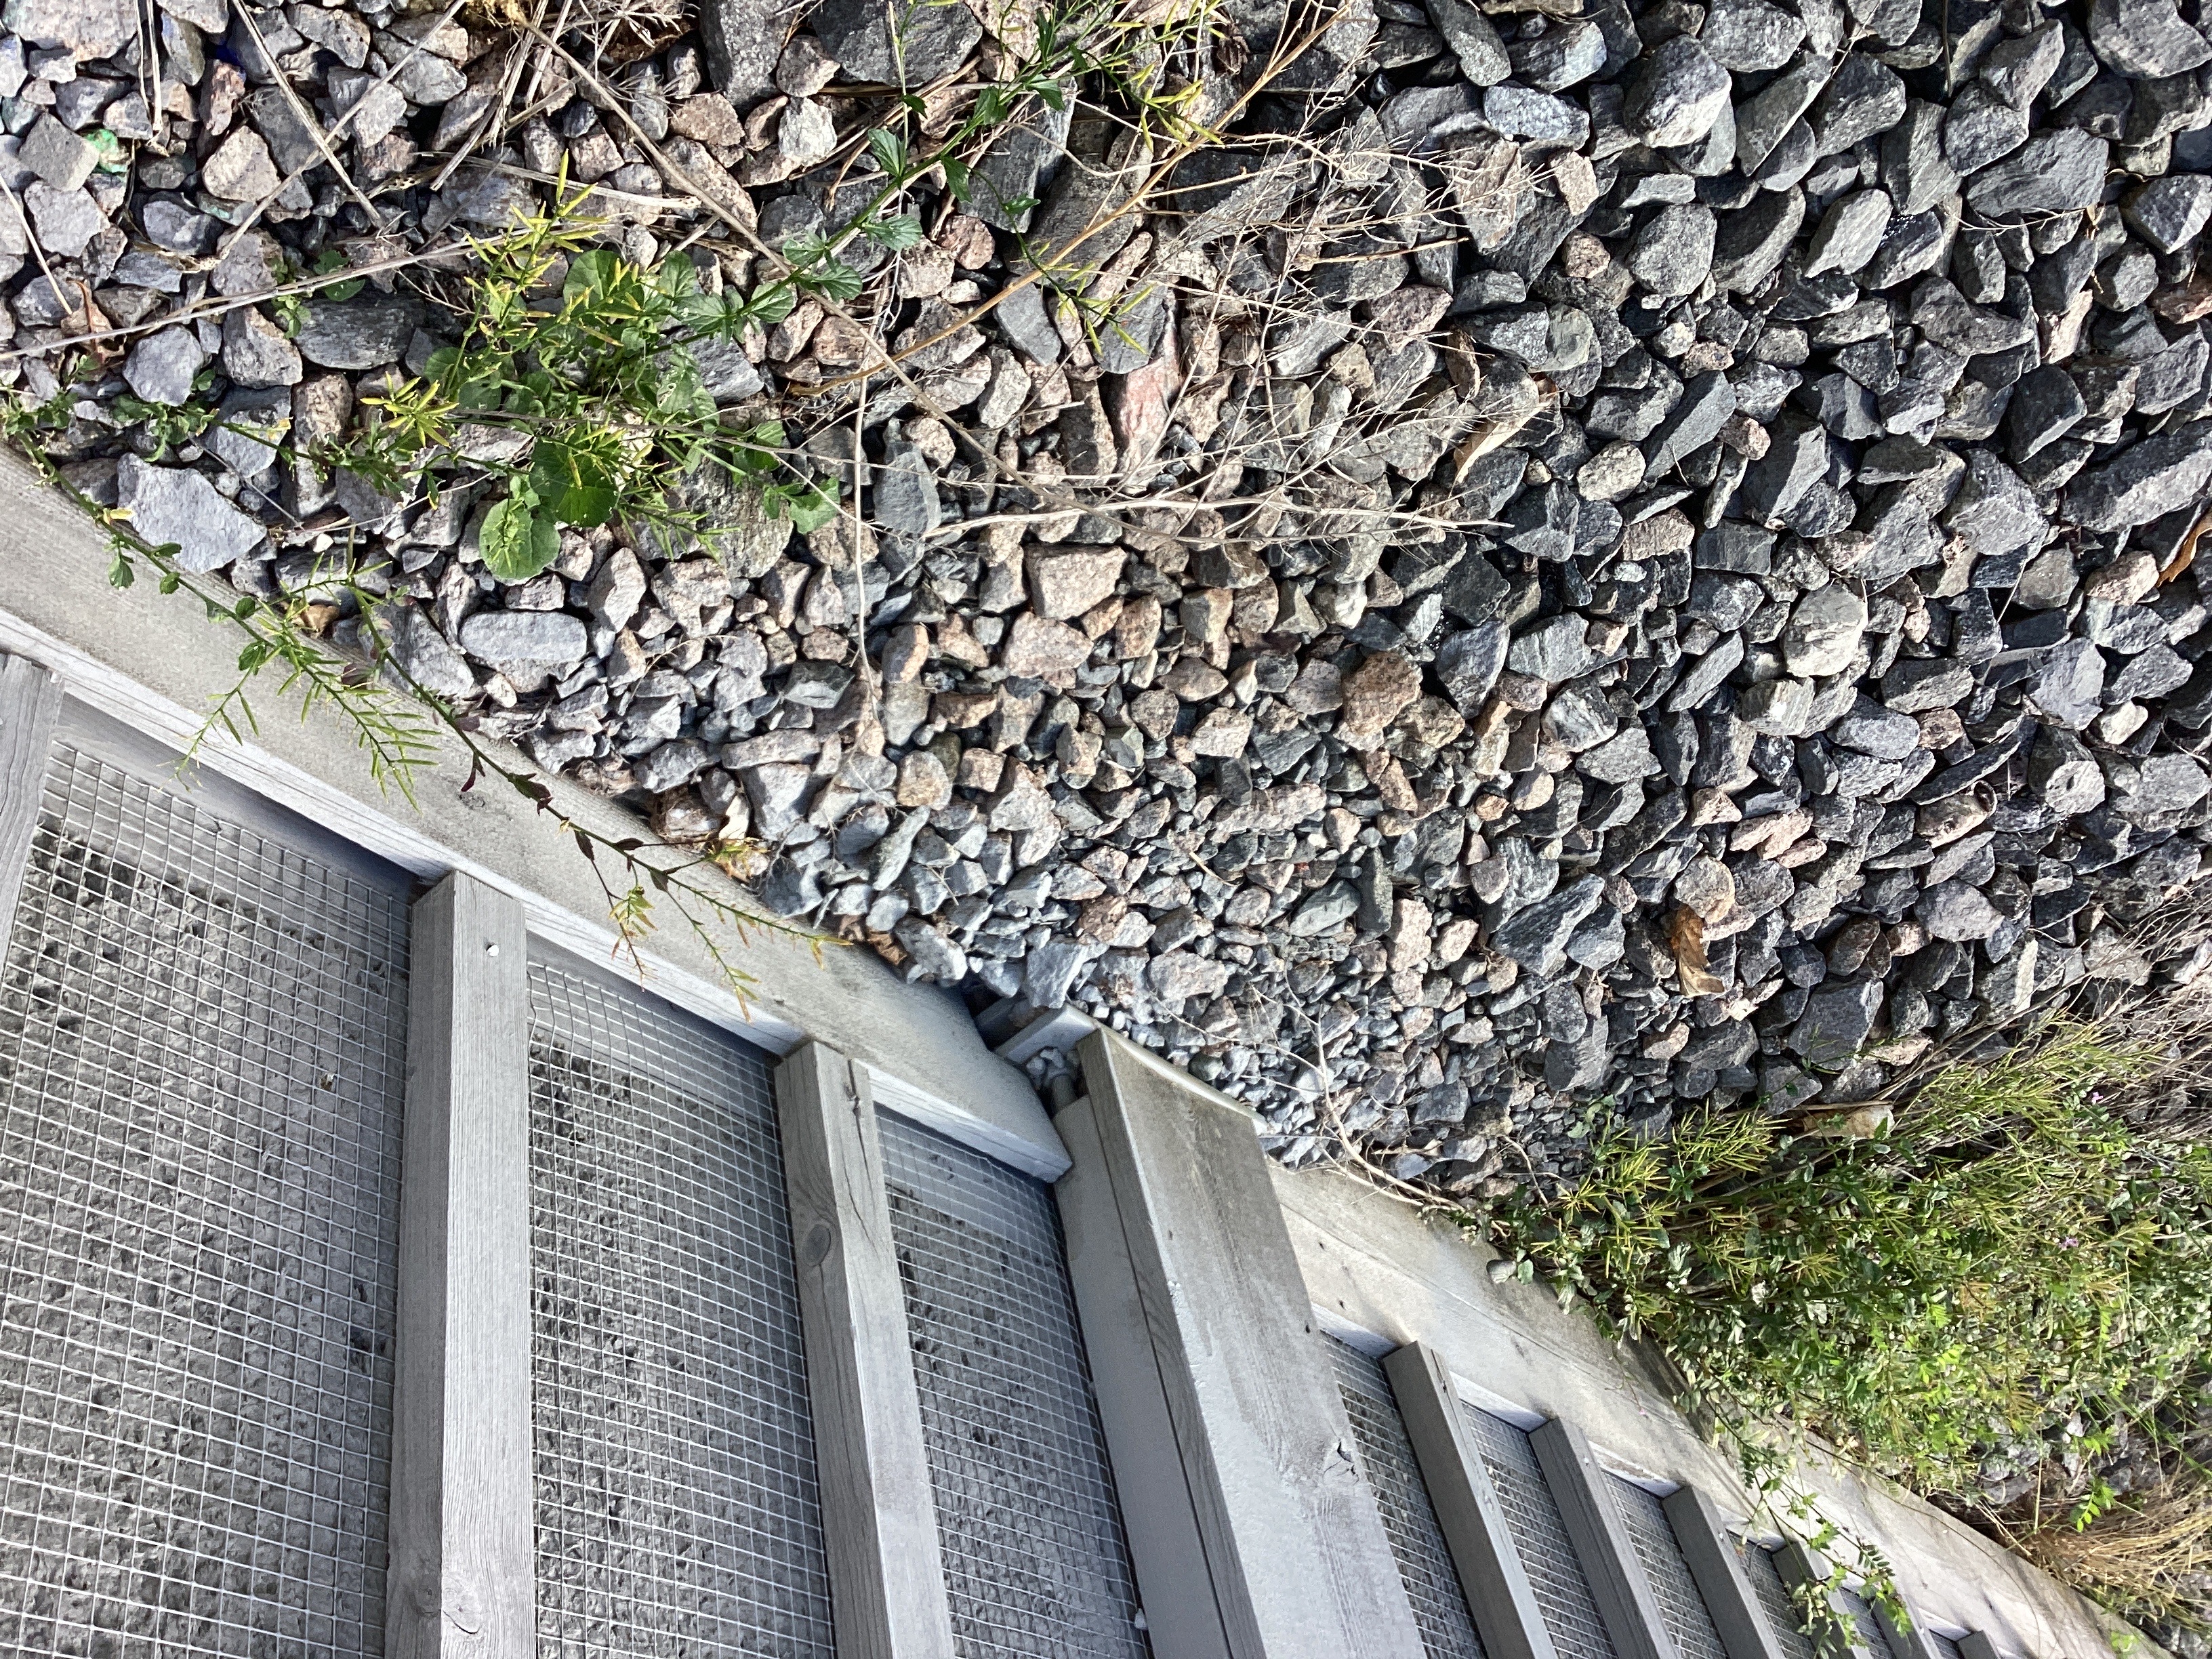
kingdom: Plantae
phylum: Tracheophyta
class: Magnoliopsida
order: Brassicales
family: Brassicaceae
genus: Barbarea
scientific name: Barbarea vulgaris
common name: vinterkarse
